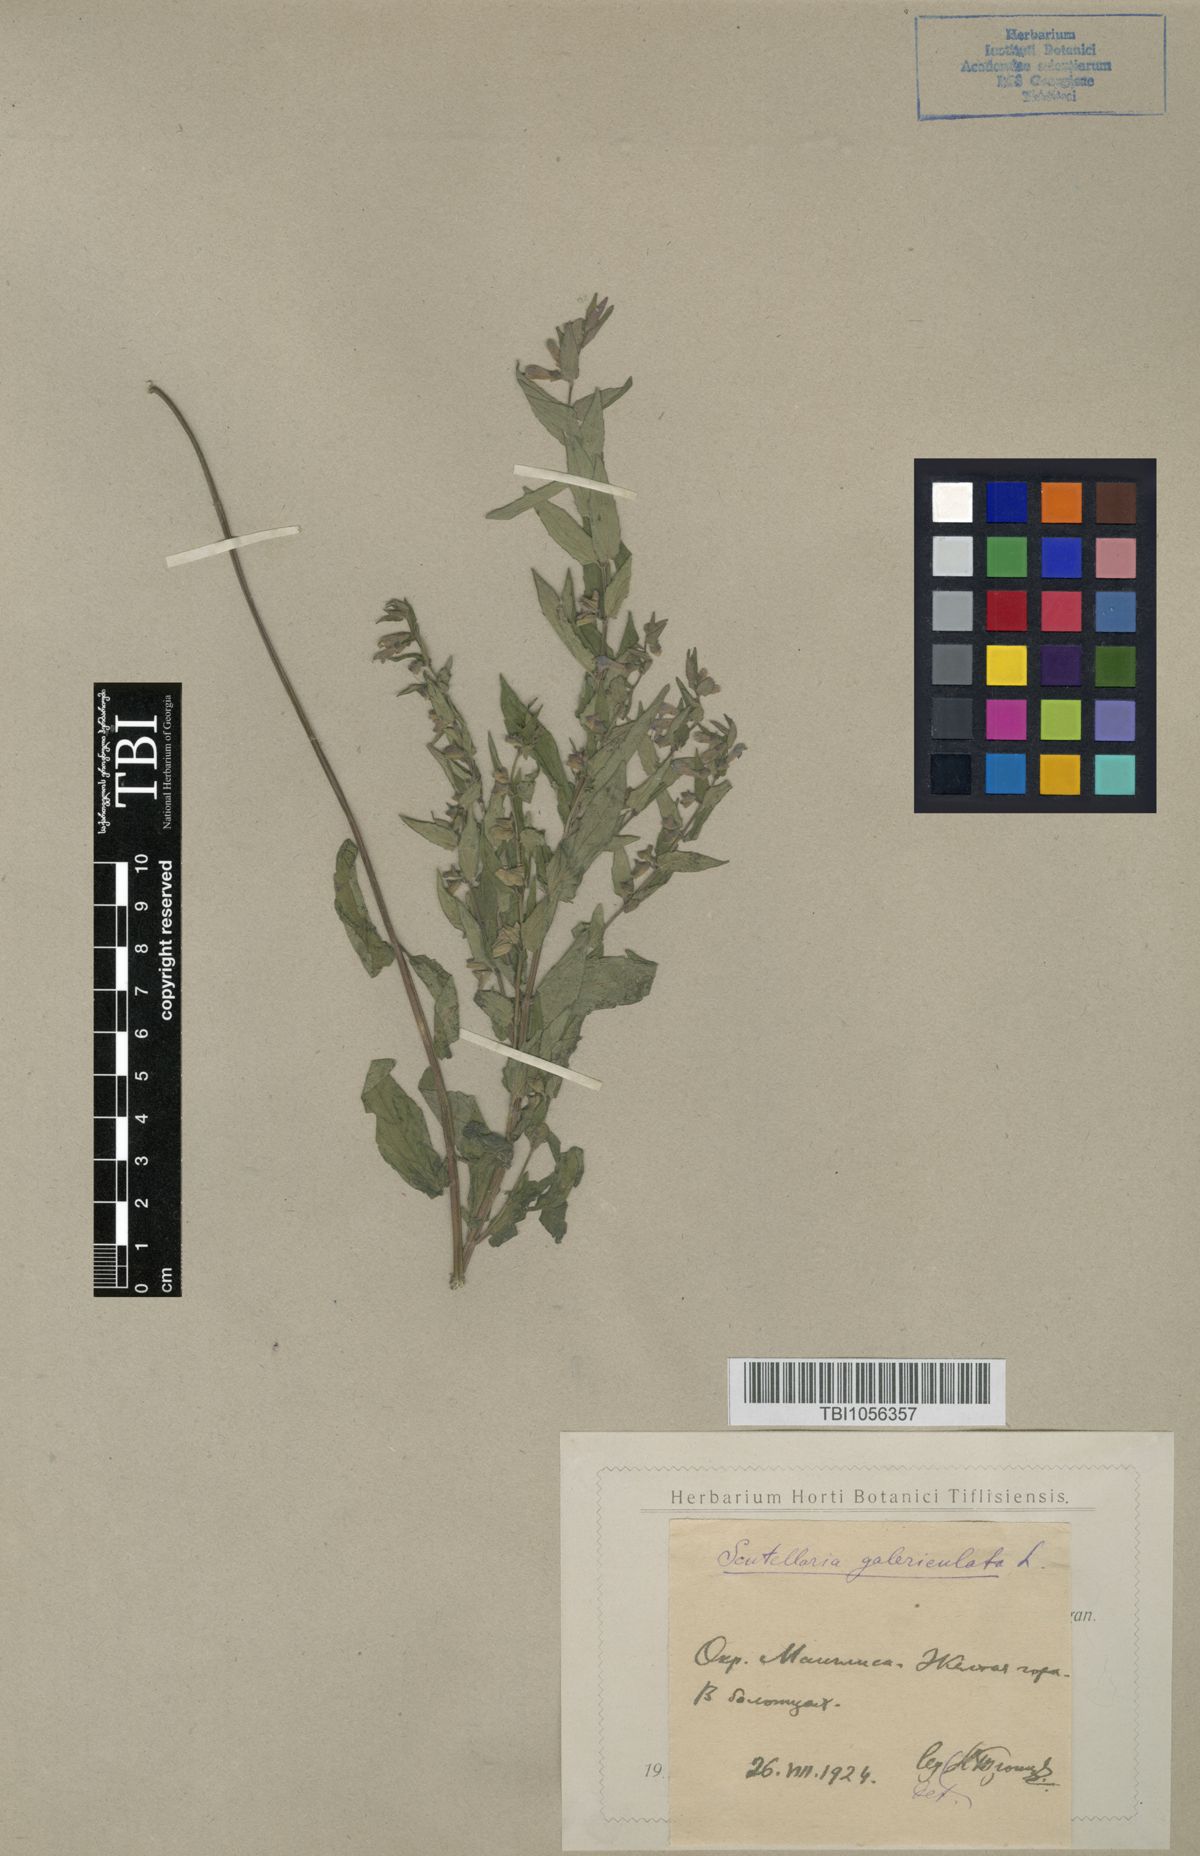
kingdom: Plantae
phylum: Tracheophyta
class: Magnoliopsida
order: Lamiales
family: Lamiaceae
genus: Scutellaria
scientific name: Scutellaria galericulata
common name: Skullcap
